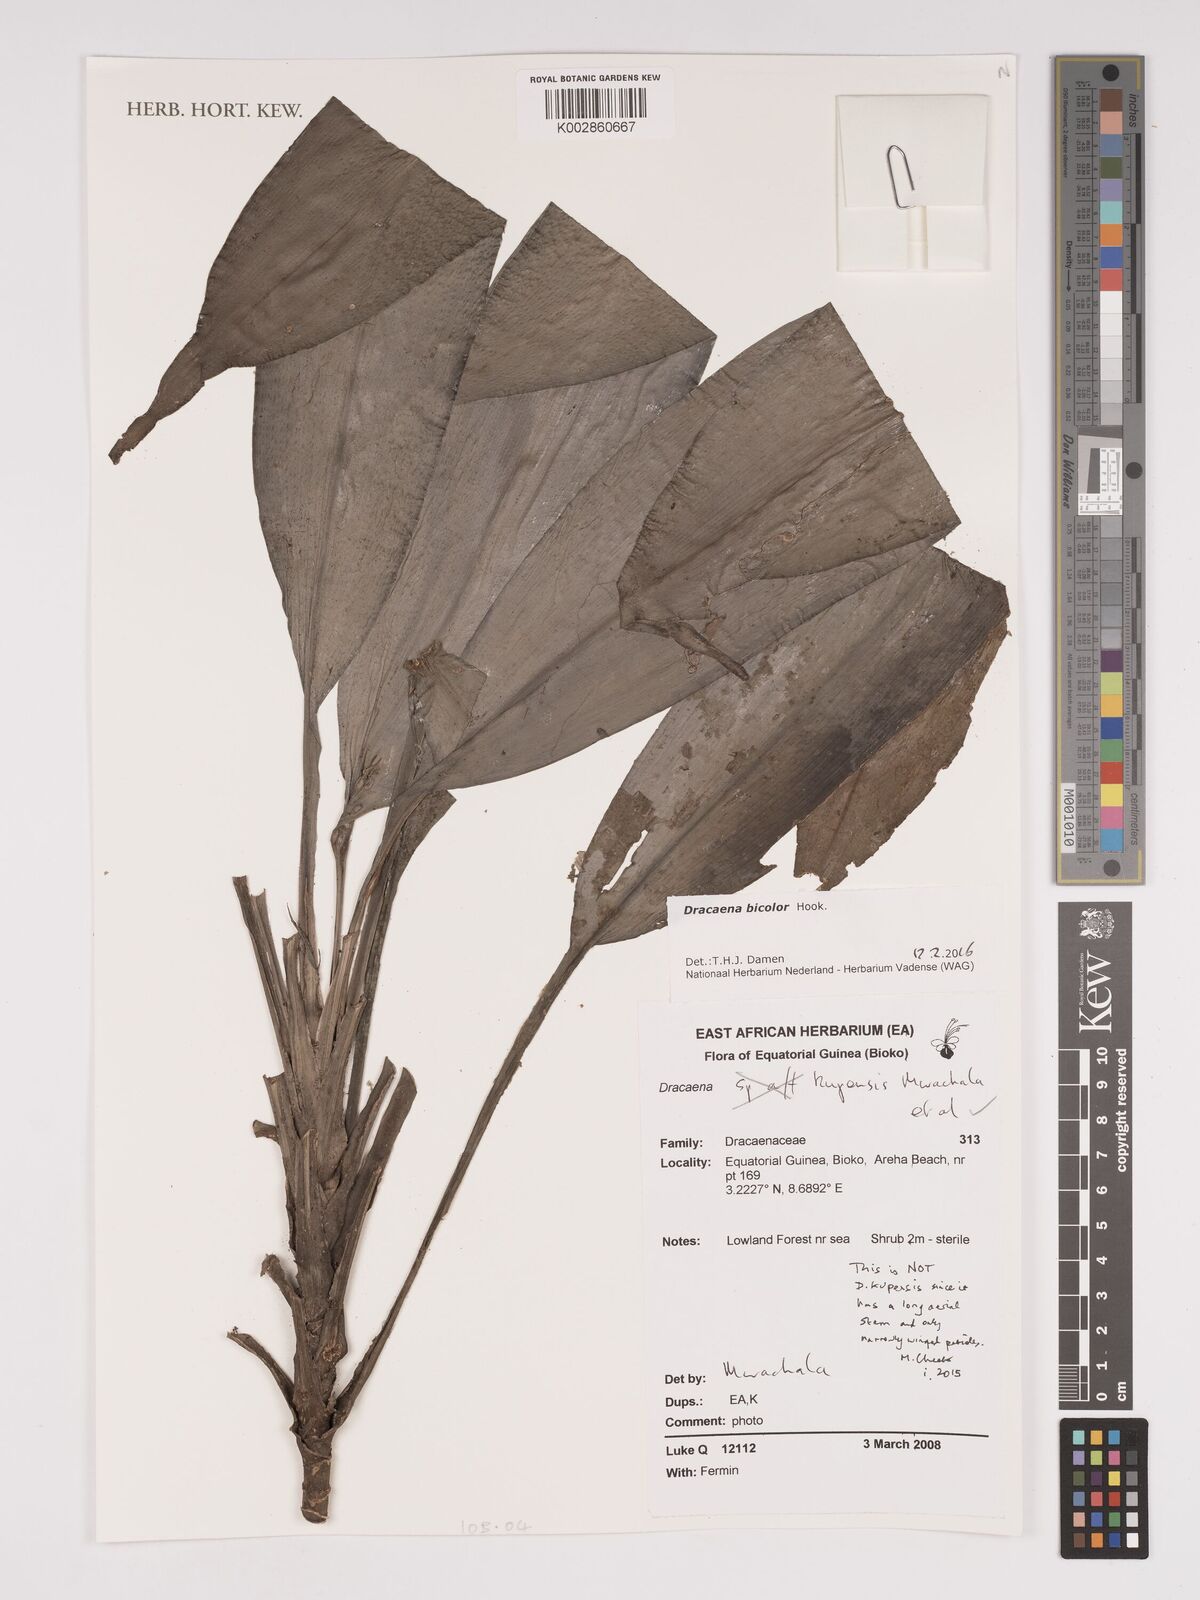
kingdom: Plantae
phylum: Tracheophyta
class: Liliopsida
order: Asparagales
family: Asparagaceae
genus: Dracaena
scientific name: Dracaena bicolor
